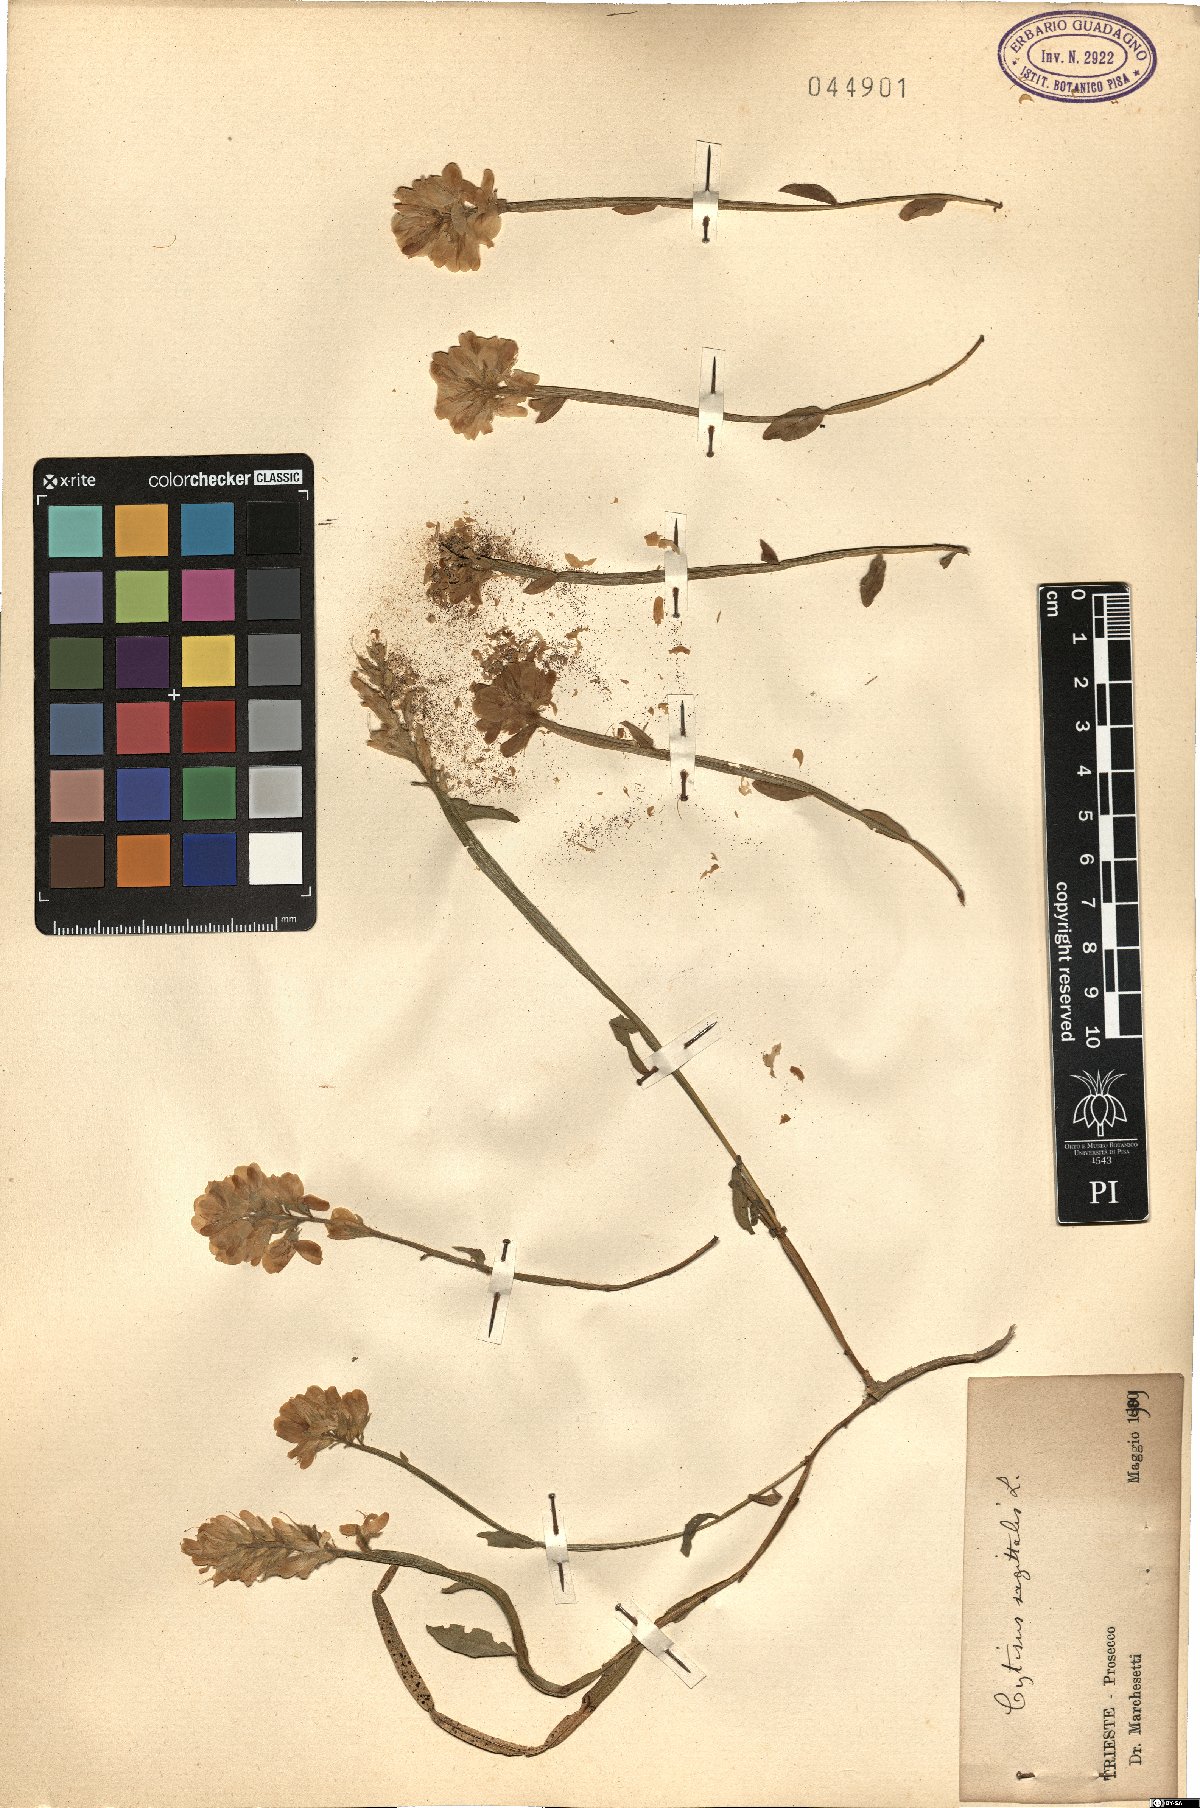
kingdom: Plantae
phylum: Tracheophyta
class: Magnoliopsida
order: Fabales
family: Fabaceae
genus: Genista
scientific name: Genista sagittalis
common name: Winged greenweed
